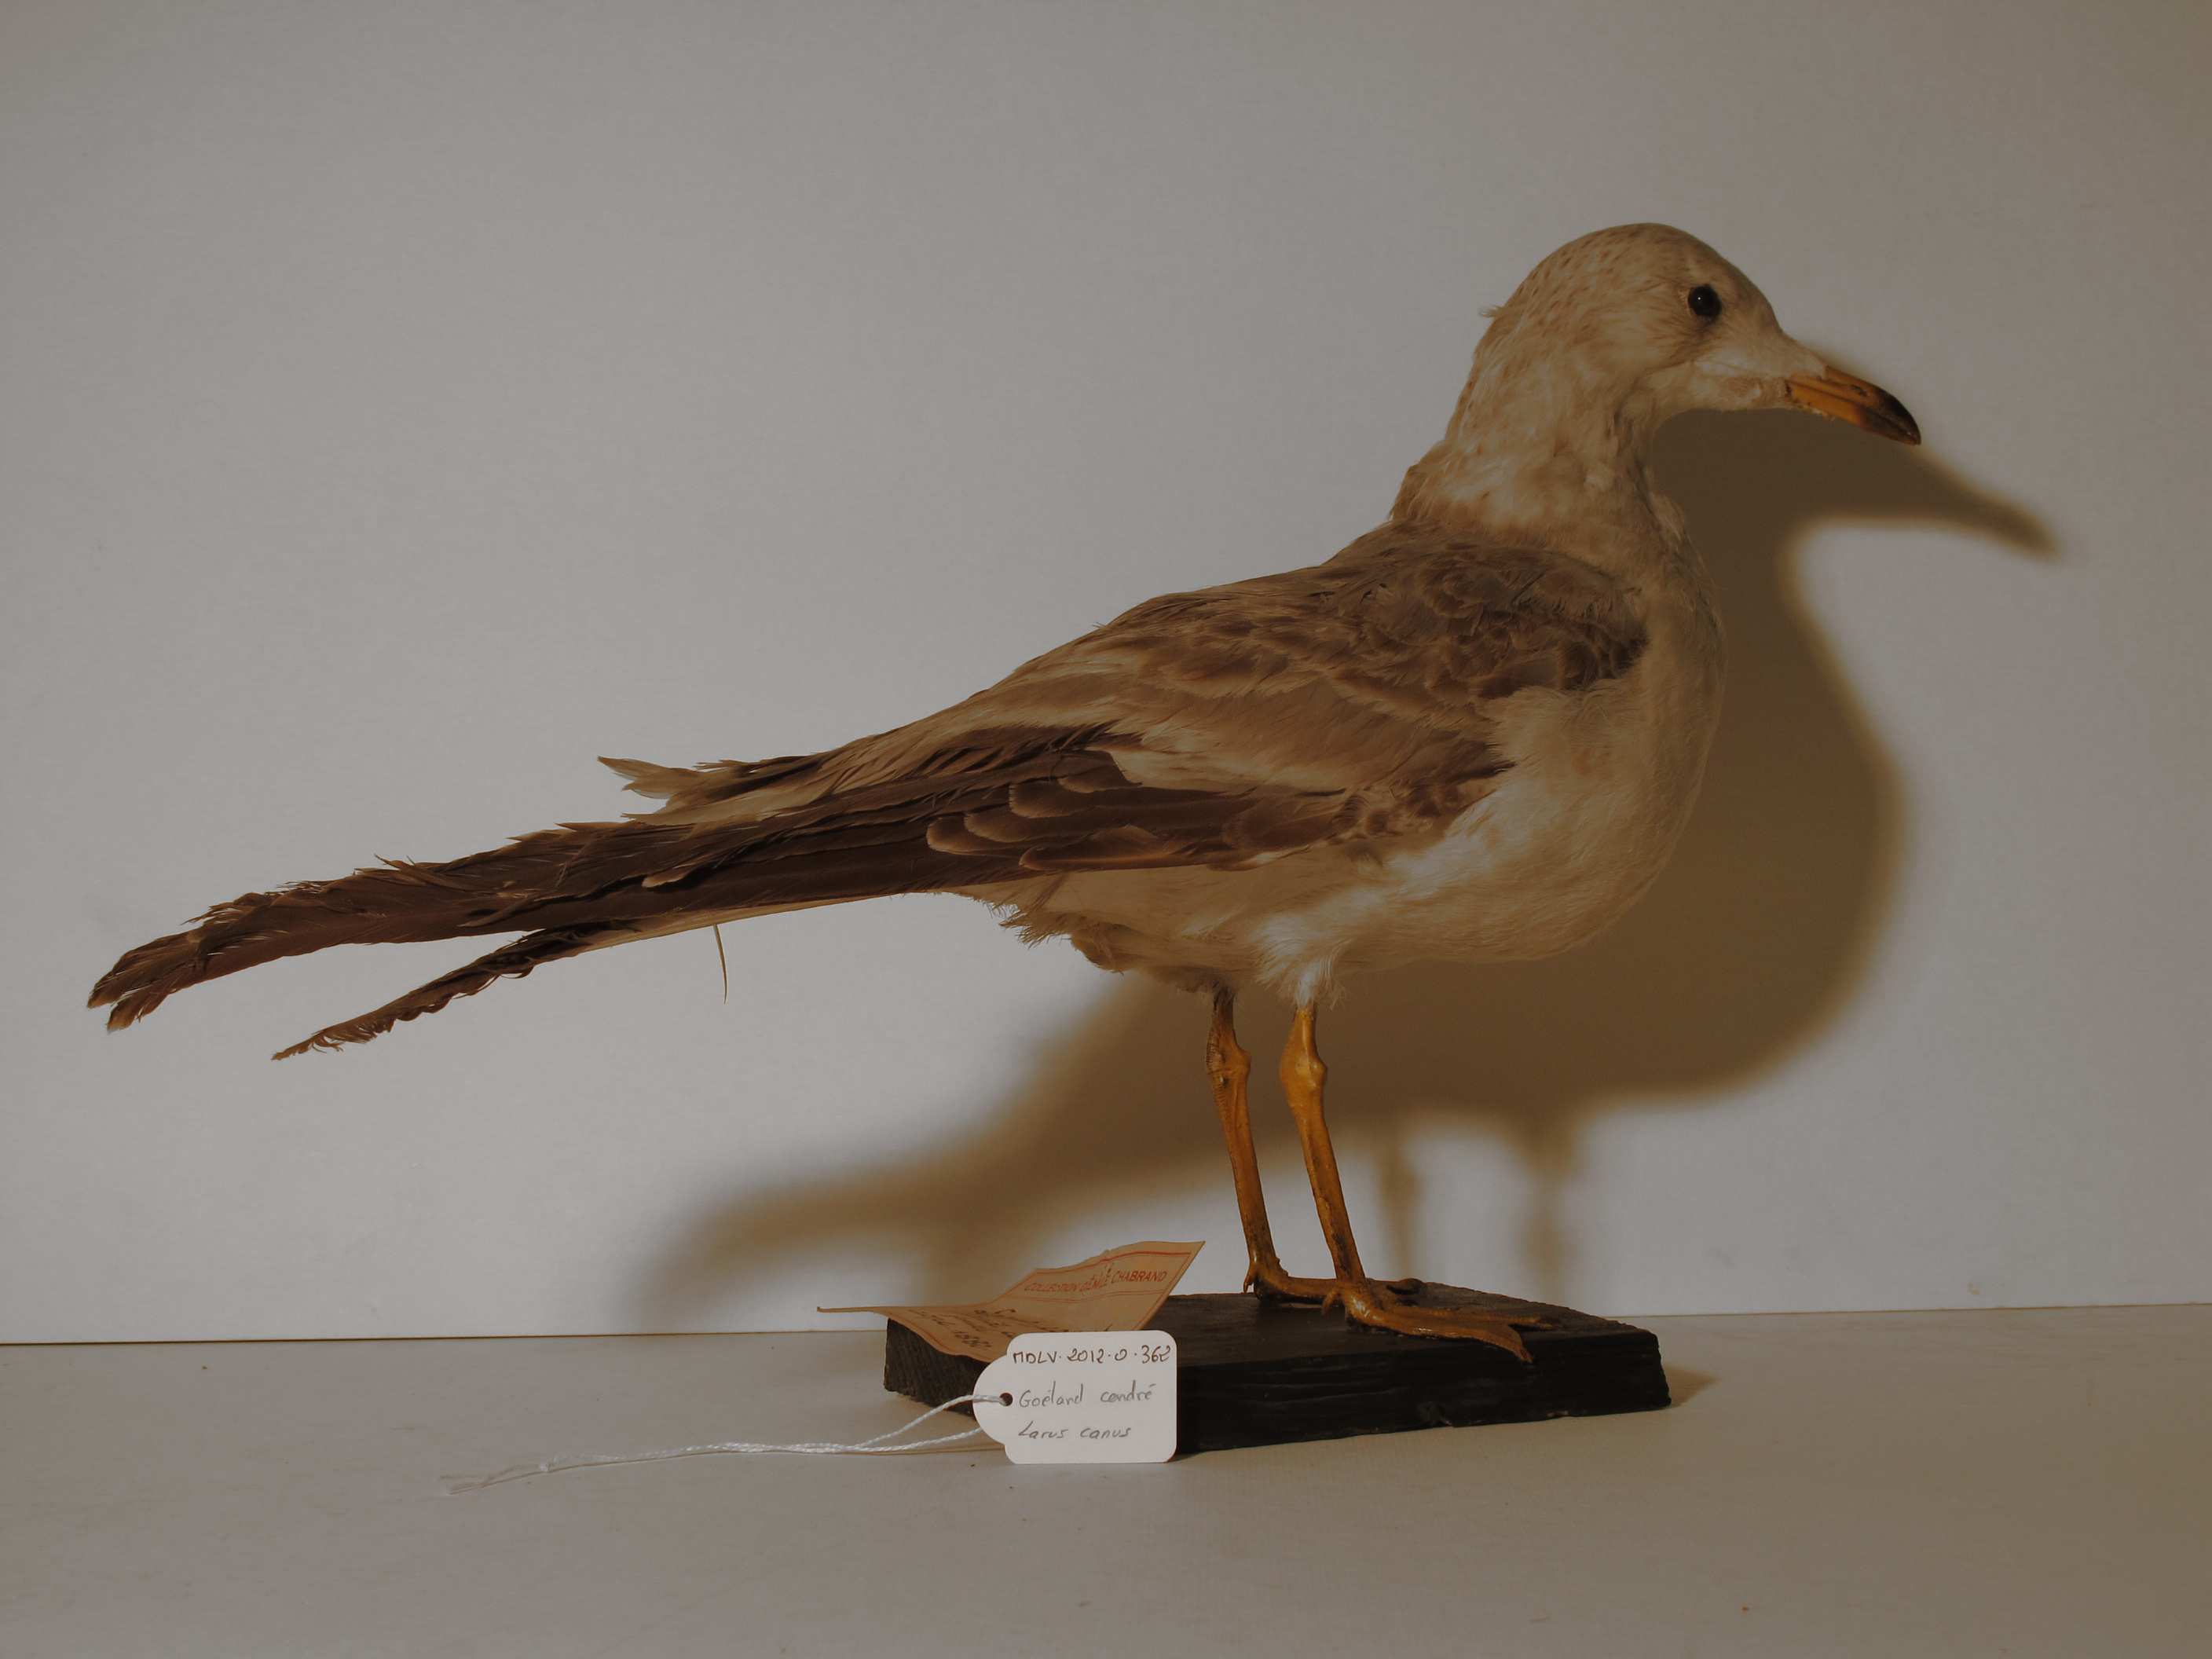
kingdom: Animalia
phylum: Chordata
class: Aves
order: Charadriiformes
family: Laridae
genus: Larus
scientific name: Larus canus
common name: Mew Gull
